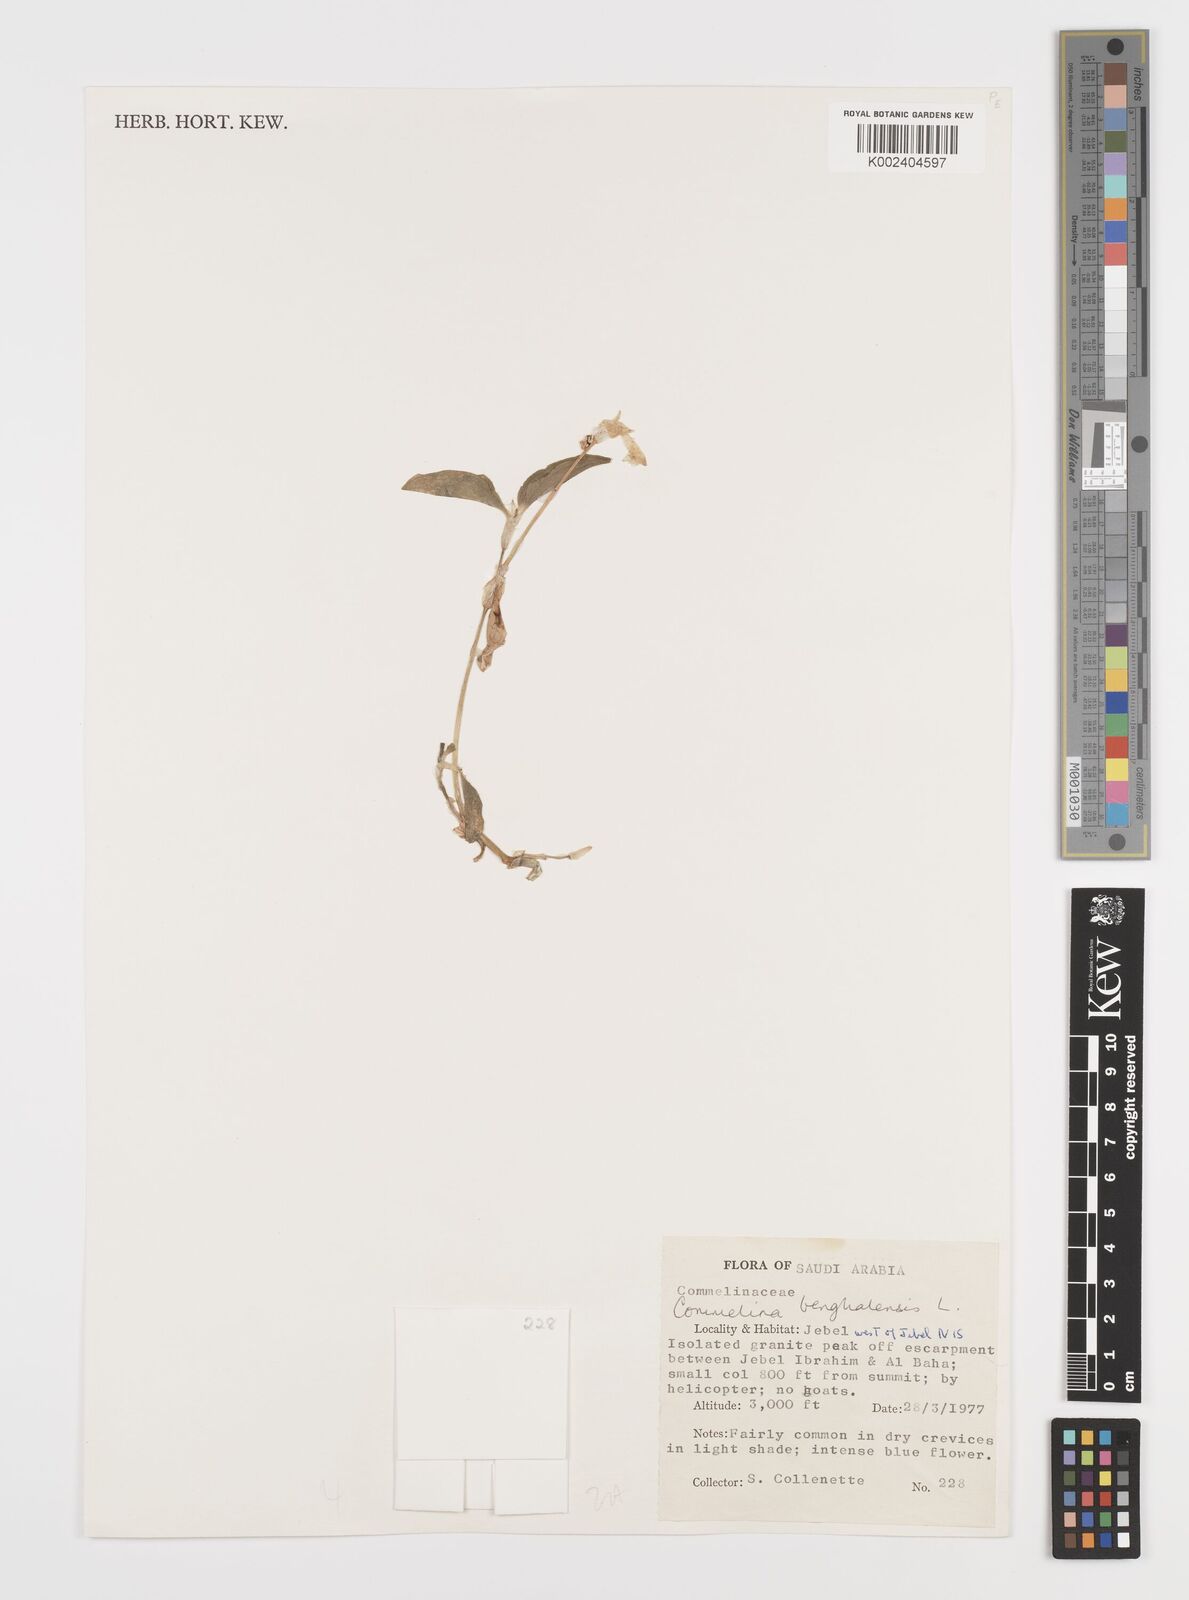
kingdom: Plantae
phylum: Tracheophyta
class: Liliopsida
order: Commelinales
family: Commelinaceae
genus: Commelina
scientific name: Commelina benghalensis
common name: Jio
